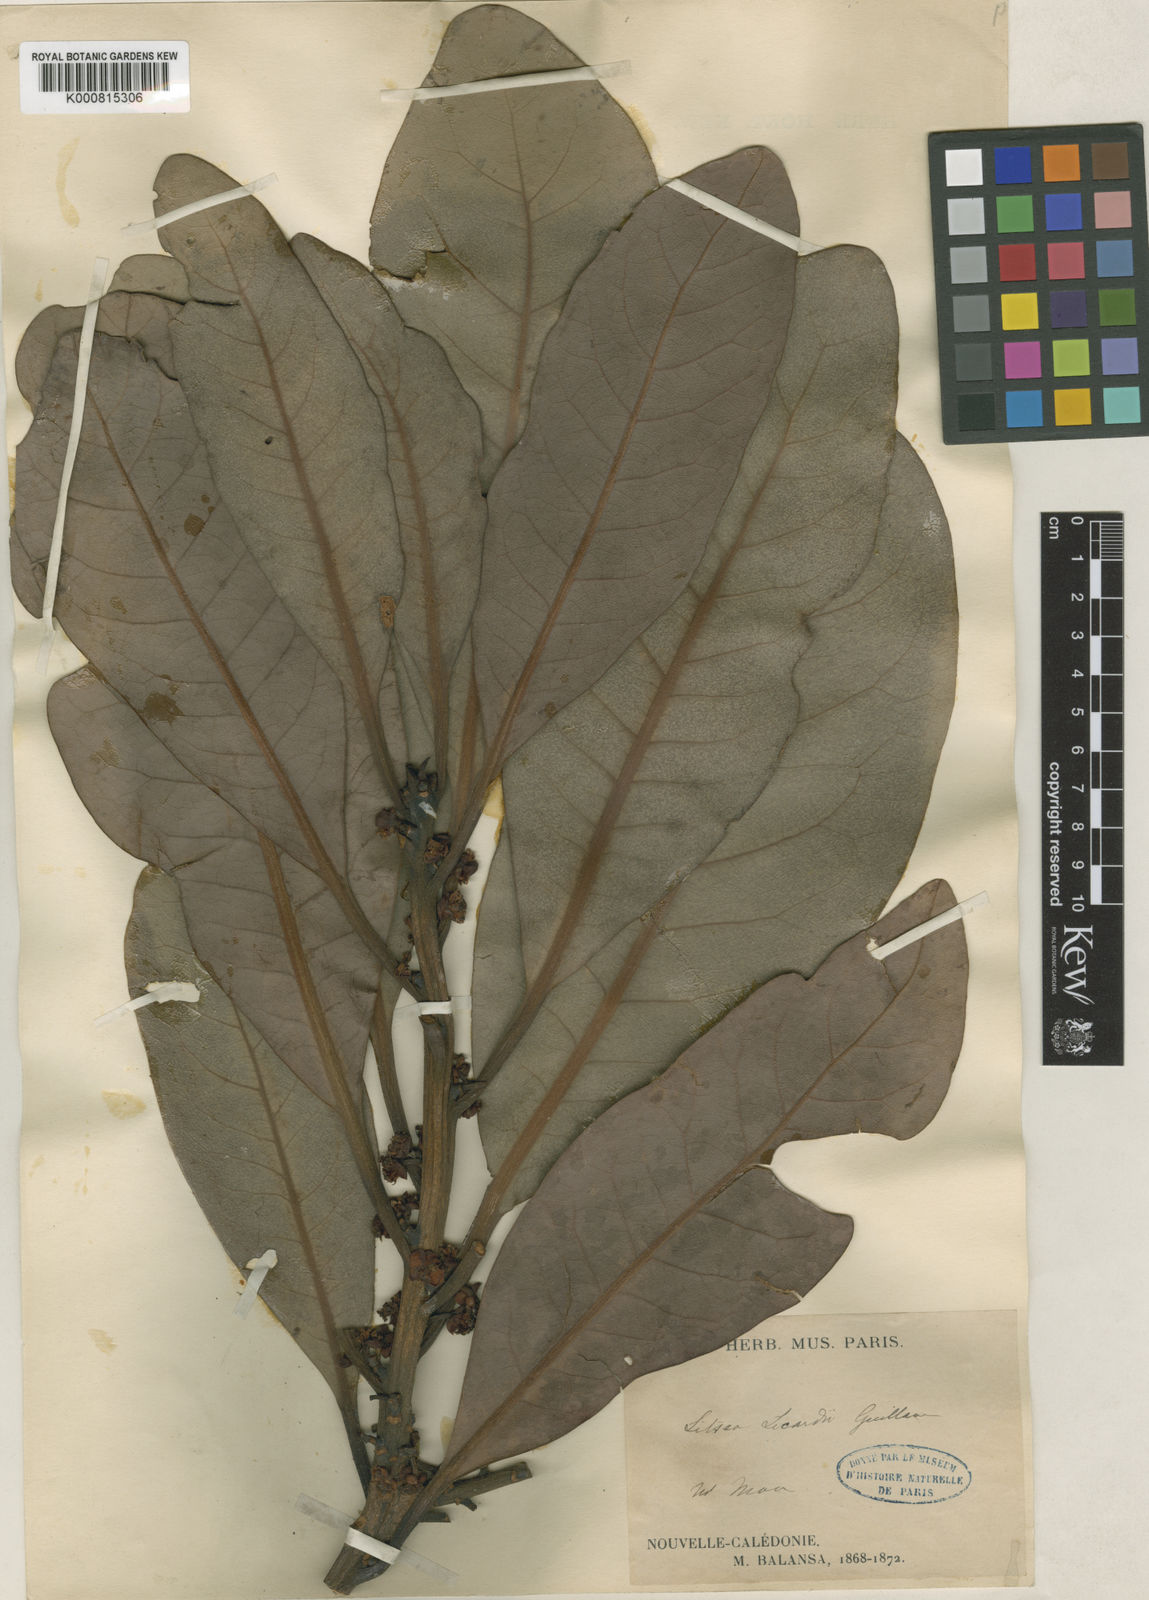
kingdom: Plantae
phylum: Tracheophyta
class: Magnoliopsida
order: Laurales
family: Lauraceae
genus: Litsea
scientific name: Litsea lecardii
